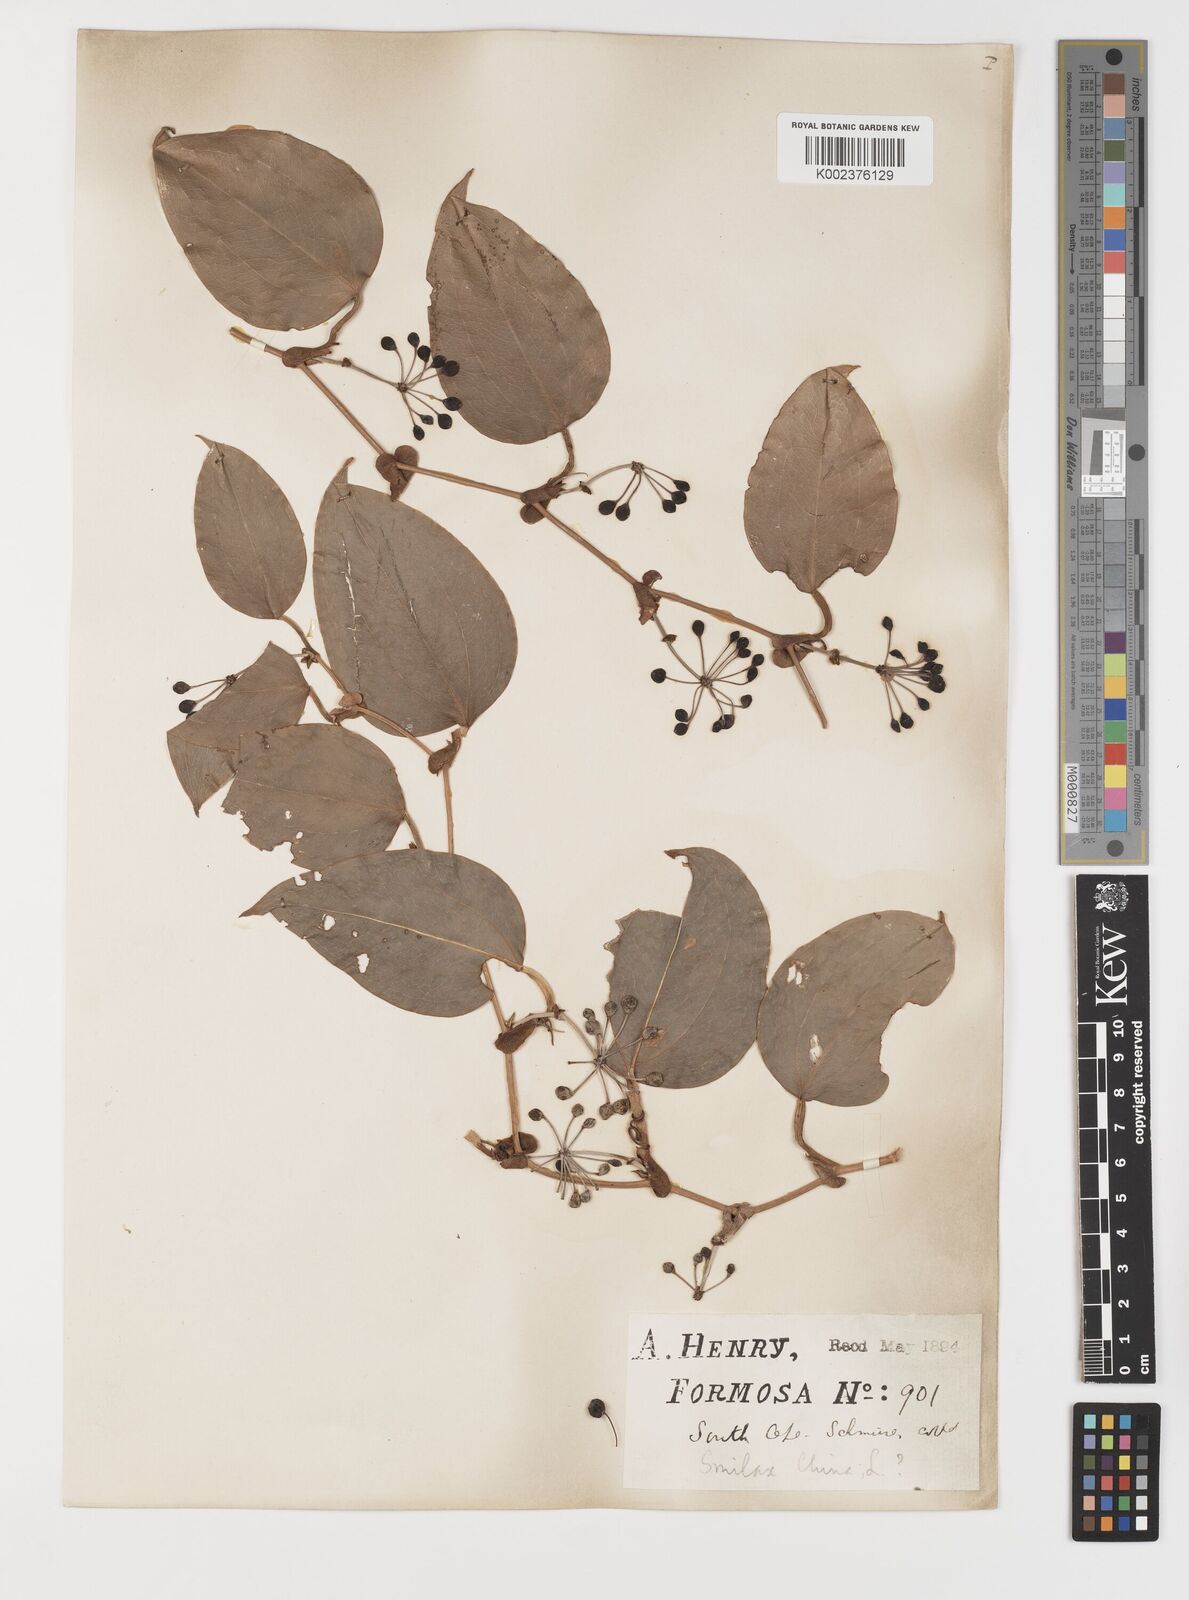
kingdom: Plantae
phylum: Tracheophyta
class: Liliopsida
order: Liliales
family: Smilacaceae
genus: Smilax
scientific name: Smilax
